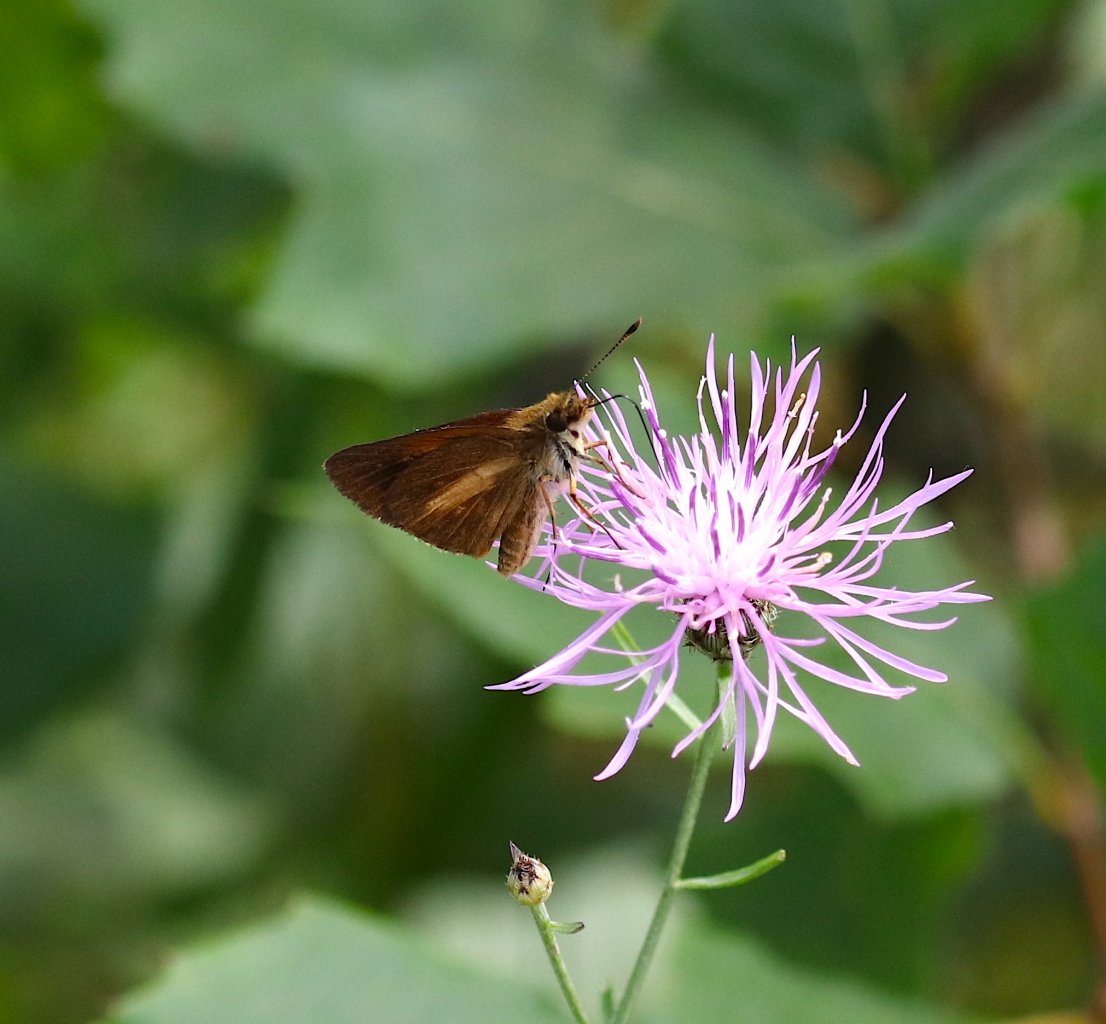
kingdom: Animalia
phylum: Arthropoda
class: Insecta
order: Lepidoptera
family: Hesperiidae
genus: Poanes
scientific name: Poanes viator
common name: Broad-winged Skipper
